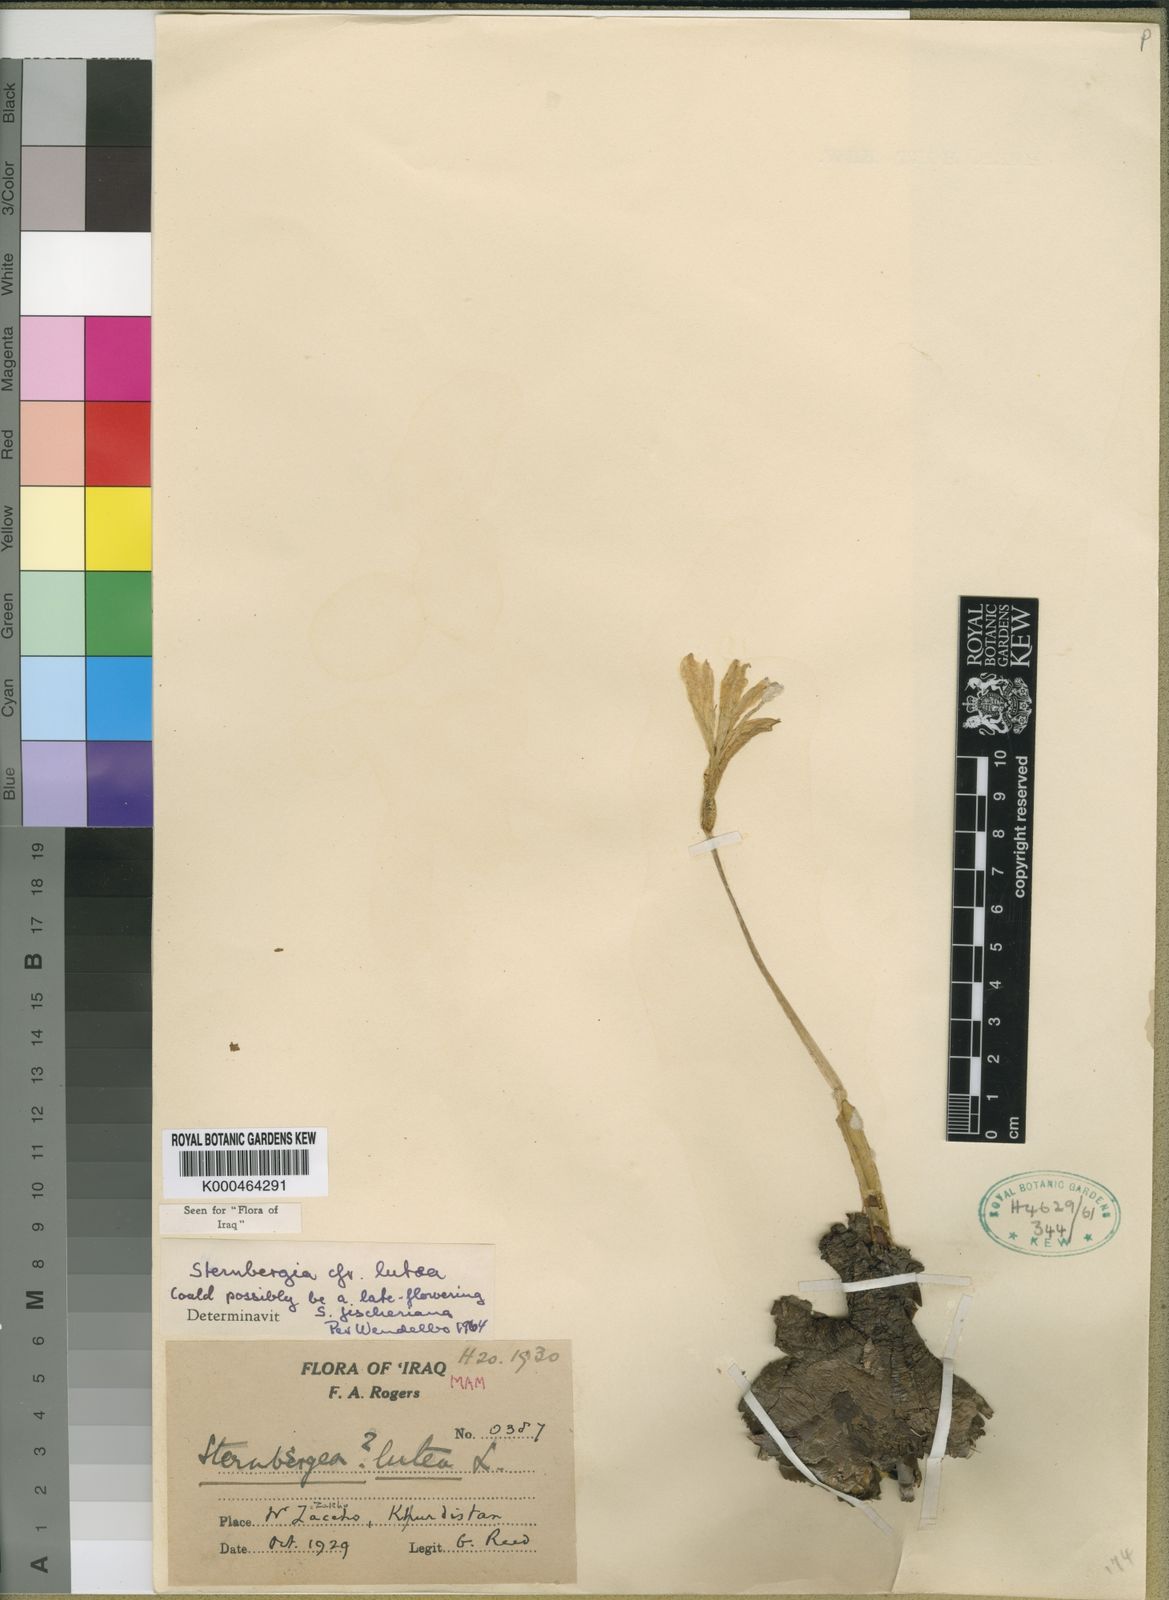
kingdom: Plantae
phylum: Tracheophyta
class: Liliopsida
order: Asparagales
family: Amaryllidaceae
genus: Sternbergia
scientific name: Sternbergia
